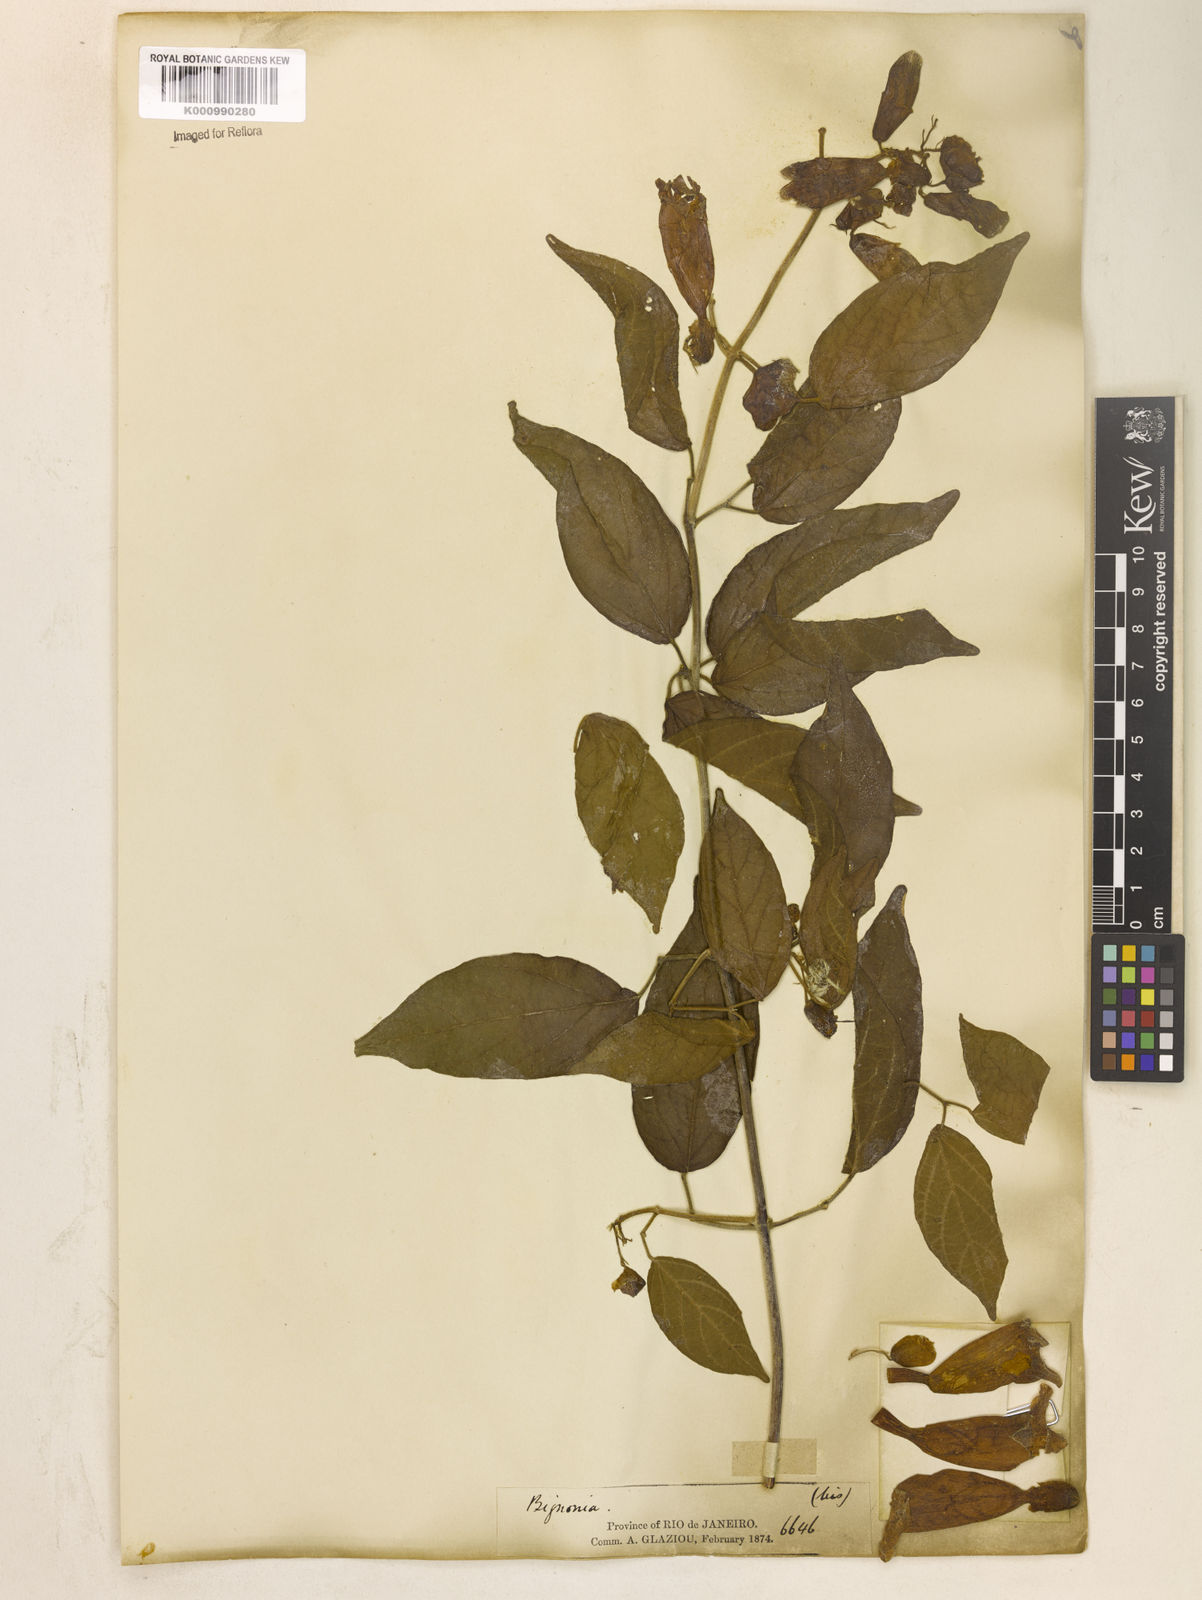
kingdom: Plantae
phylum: Tracheophyta
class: Magnoliopsida
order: Lamiales
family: Bignoniaceae
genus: Stizophyllum
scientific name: Stizophyllum perforatum
